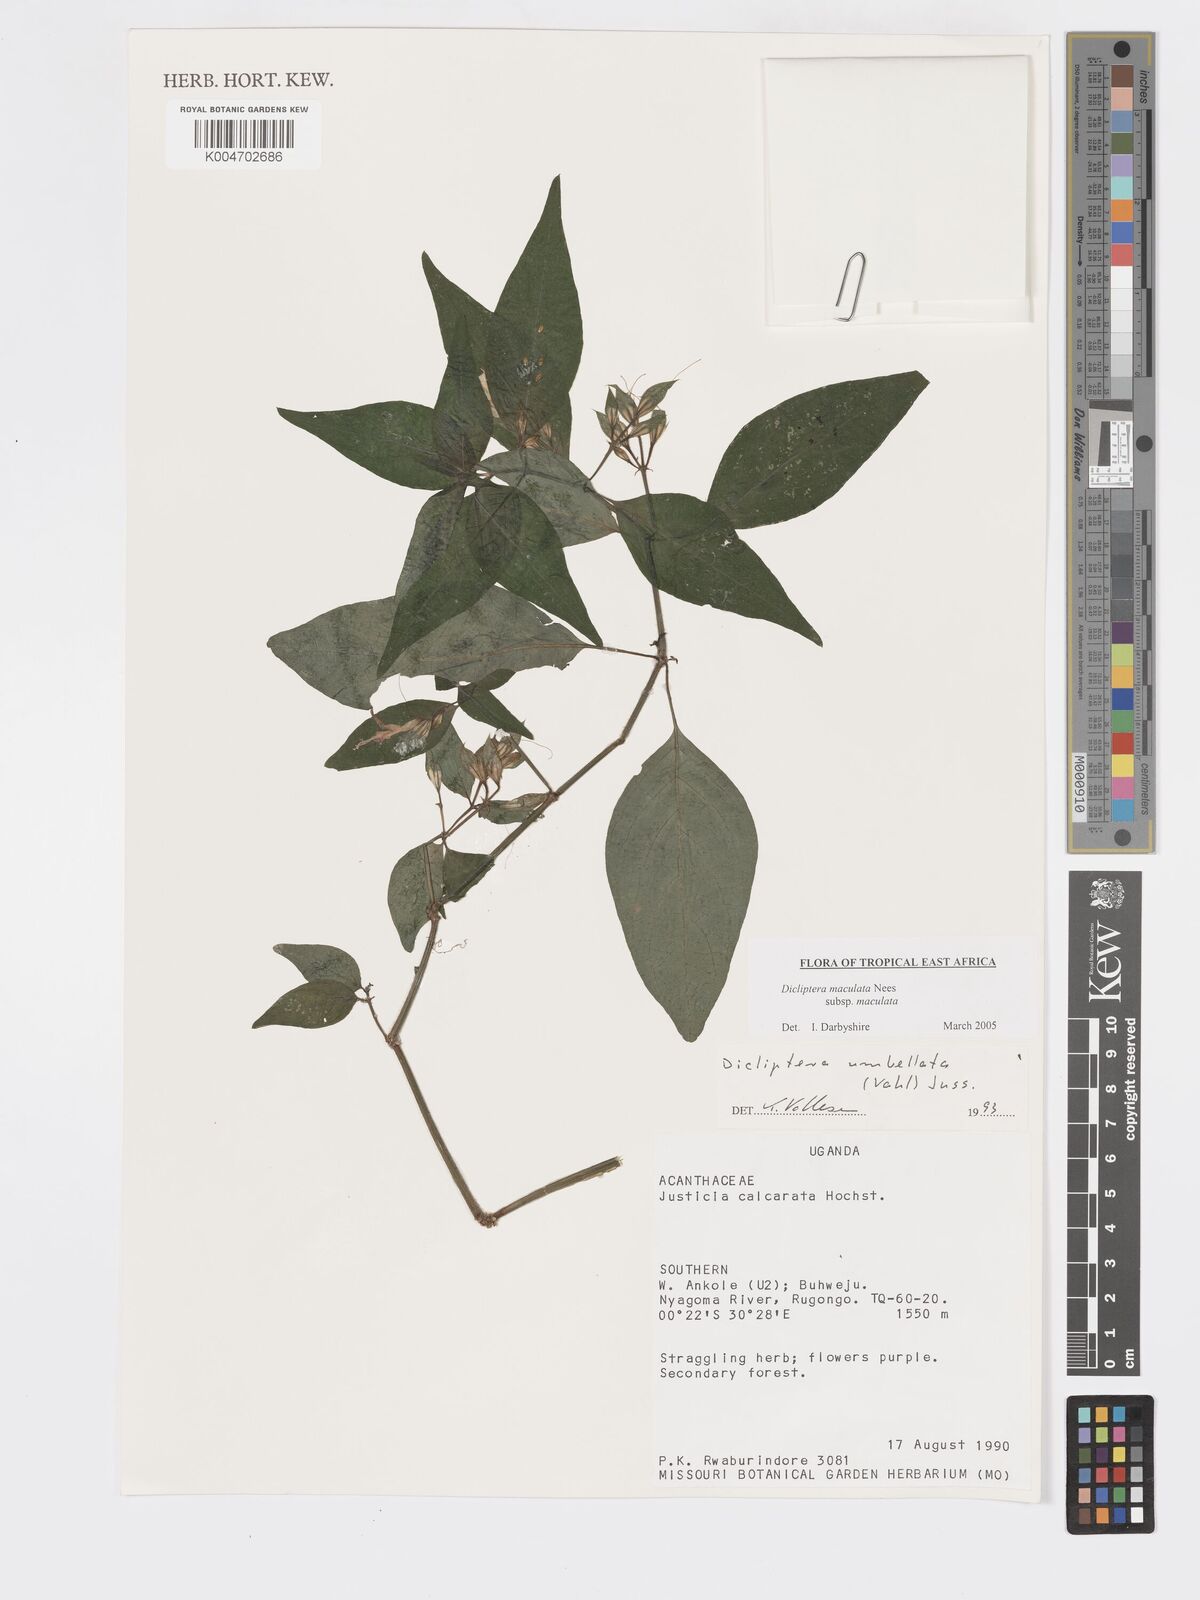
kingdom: Plantae
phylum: Tracheophyta
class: Magnoliopsida
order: Lamiales
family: Acanthaceae
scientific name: Acanthaceae
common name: Acanthaceae
